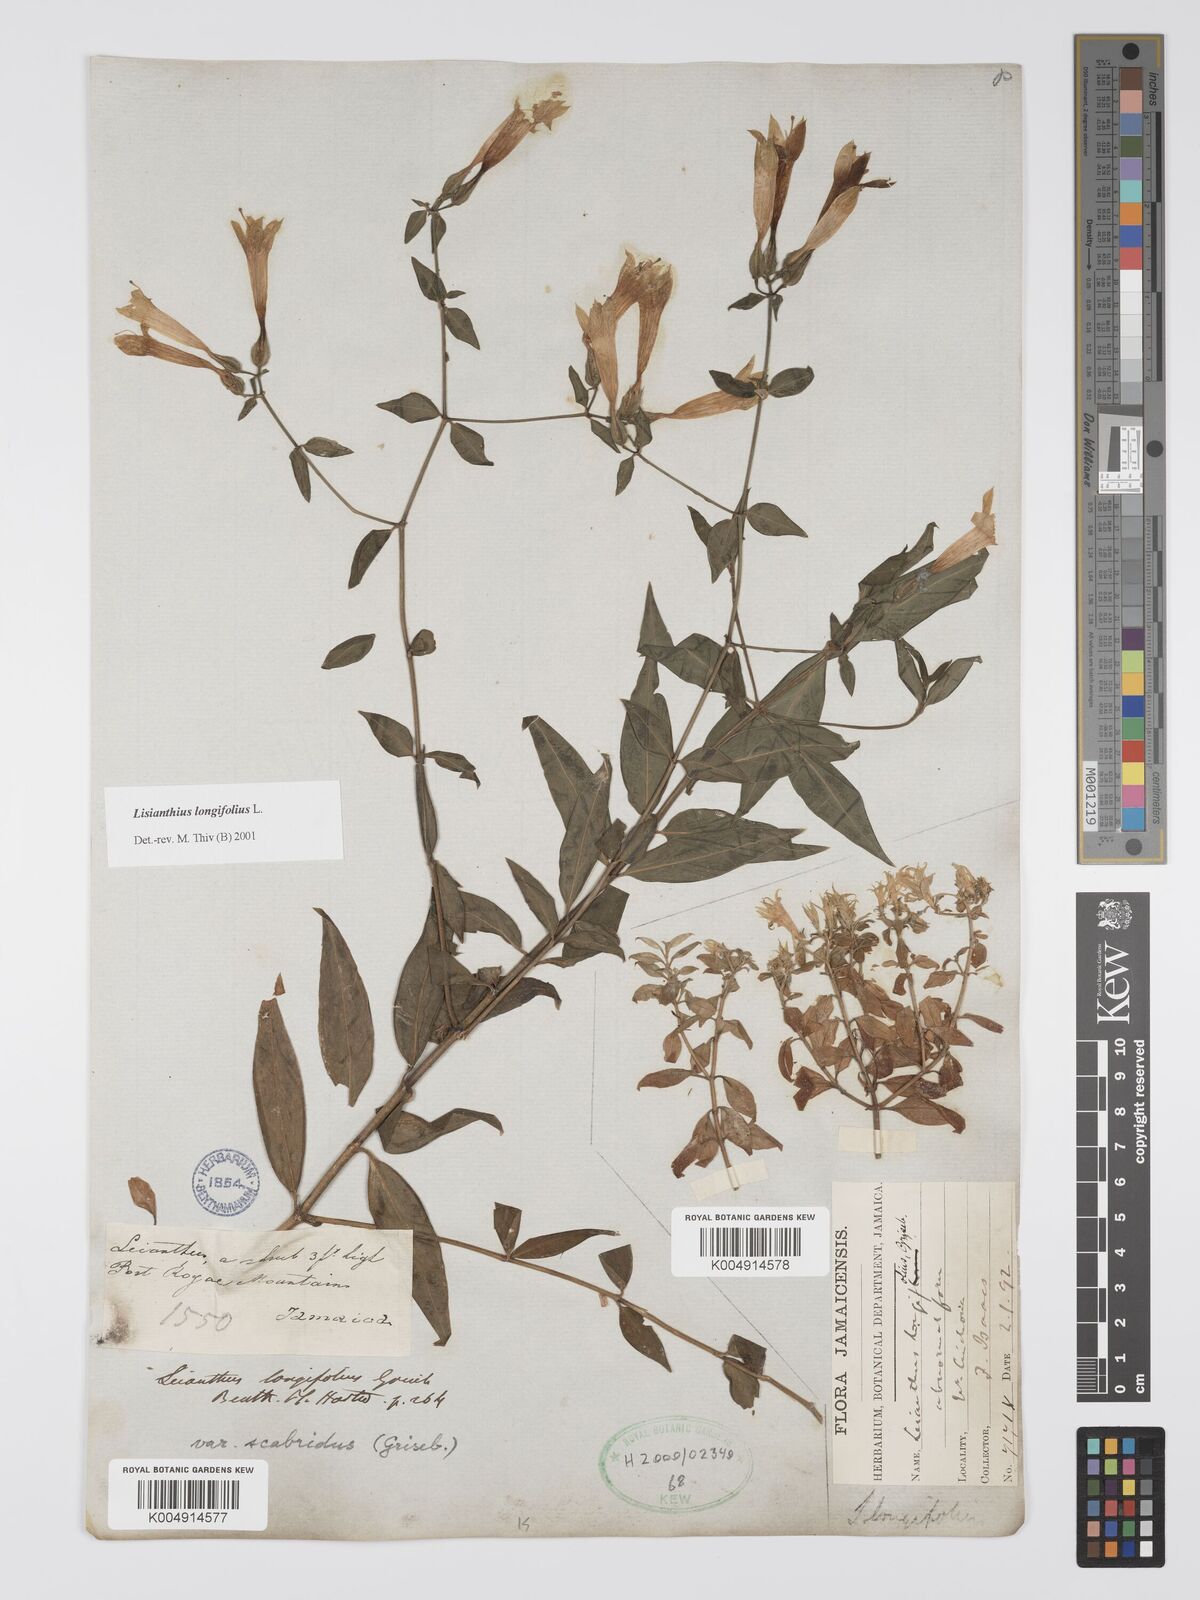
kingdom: Plantae
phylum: Tracheophyta
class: Magnoliopsida
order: Gentianales
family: Gentianaceae
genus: Lisianthus
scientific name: Lisianthus longifolius
